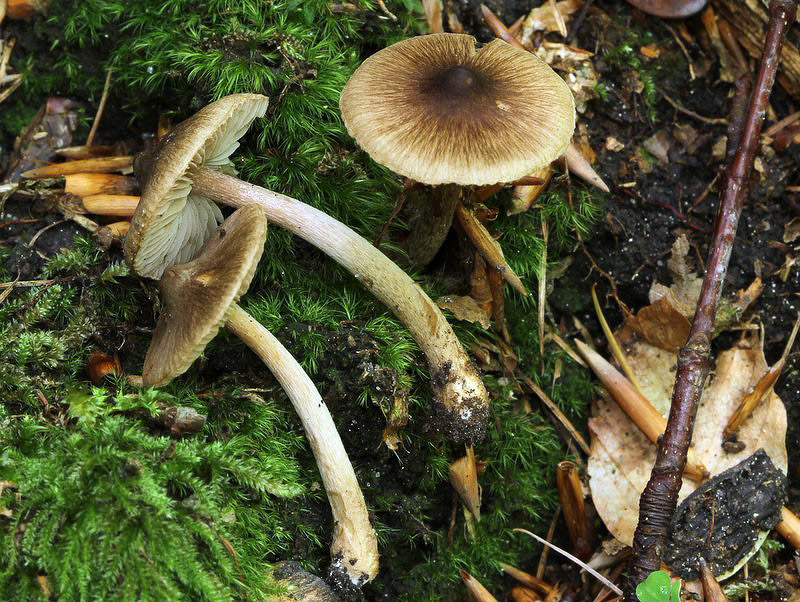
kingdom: Fungi
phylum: Basidiomycota
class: Agaricomycetes
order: Agaricales
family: Inocybaceae
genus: Inocybe
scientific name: Inocybe transitoria
